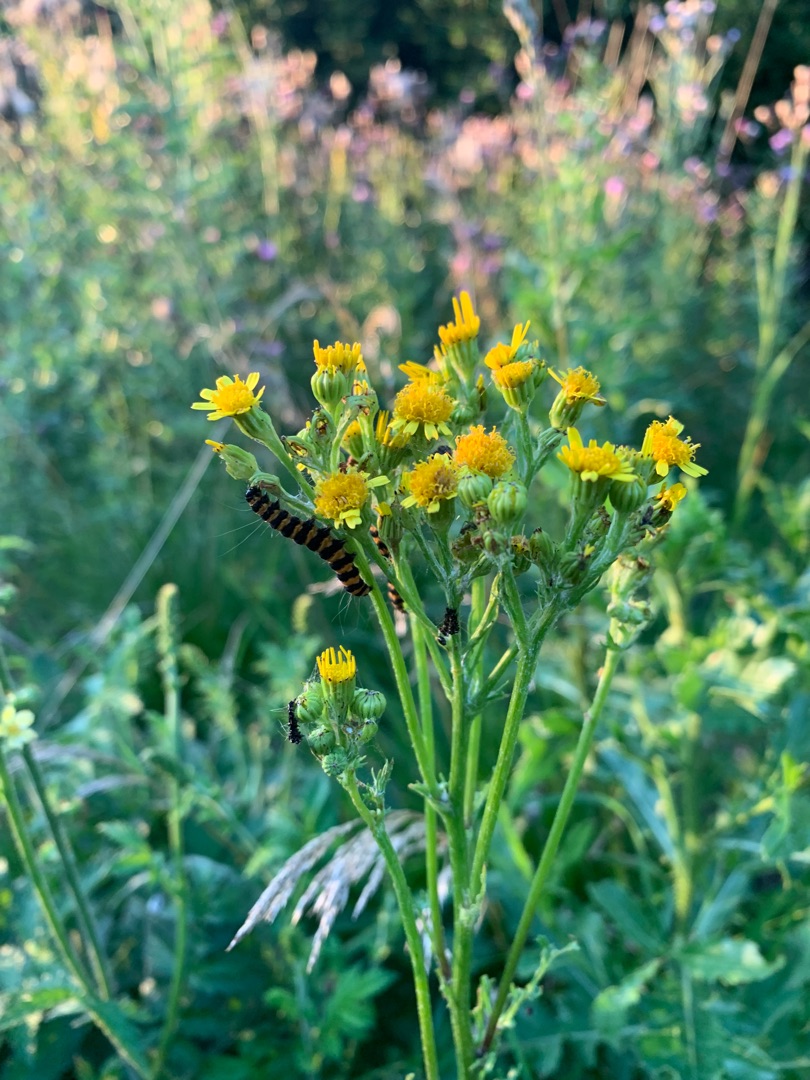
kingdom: Animalia
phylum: Arthropoda
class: Insecta
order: Lepidoptera
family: Erebidae
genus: Tyria
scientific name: Tyria jacobaeae
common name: Blodplet
